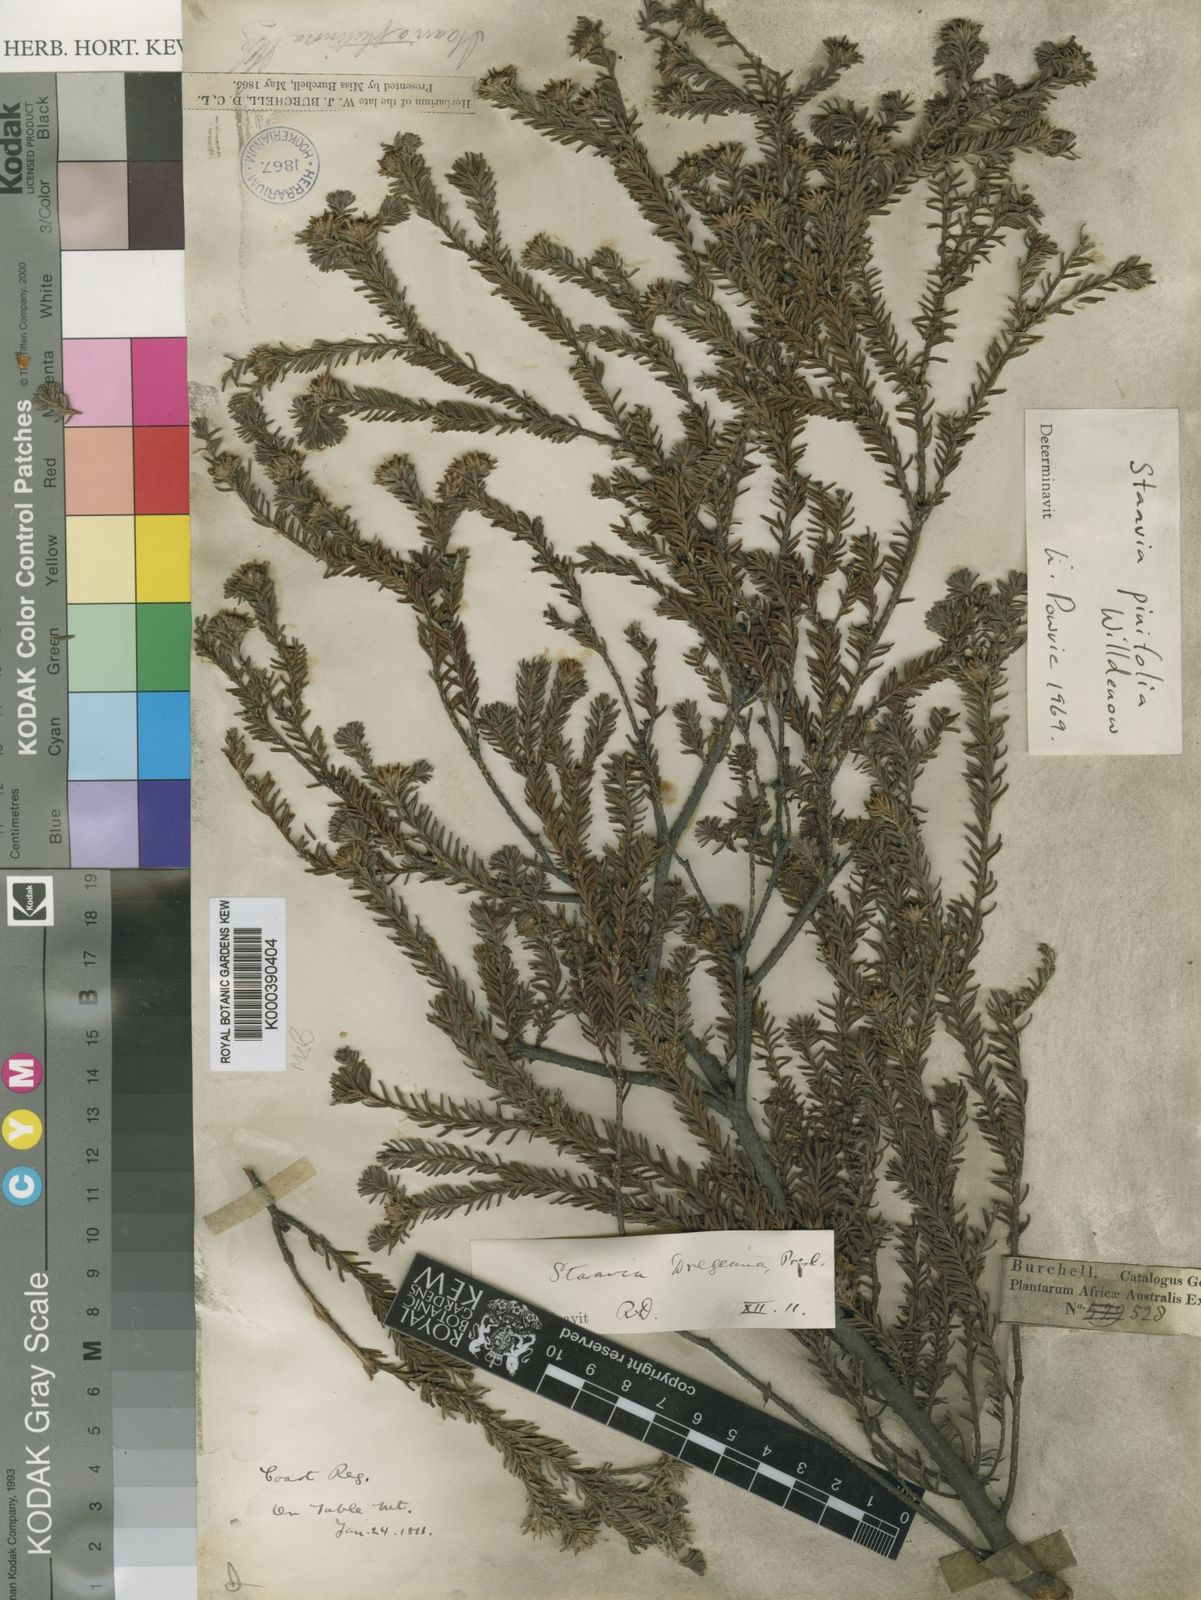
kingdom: Plantae
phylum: Tracheophyta
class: Magnoliopsida
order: Bruniales
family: Bruniaceae
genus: Staavia
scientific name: Staavia radiata
